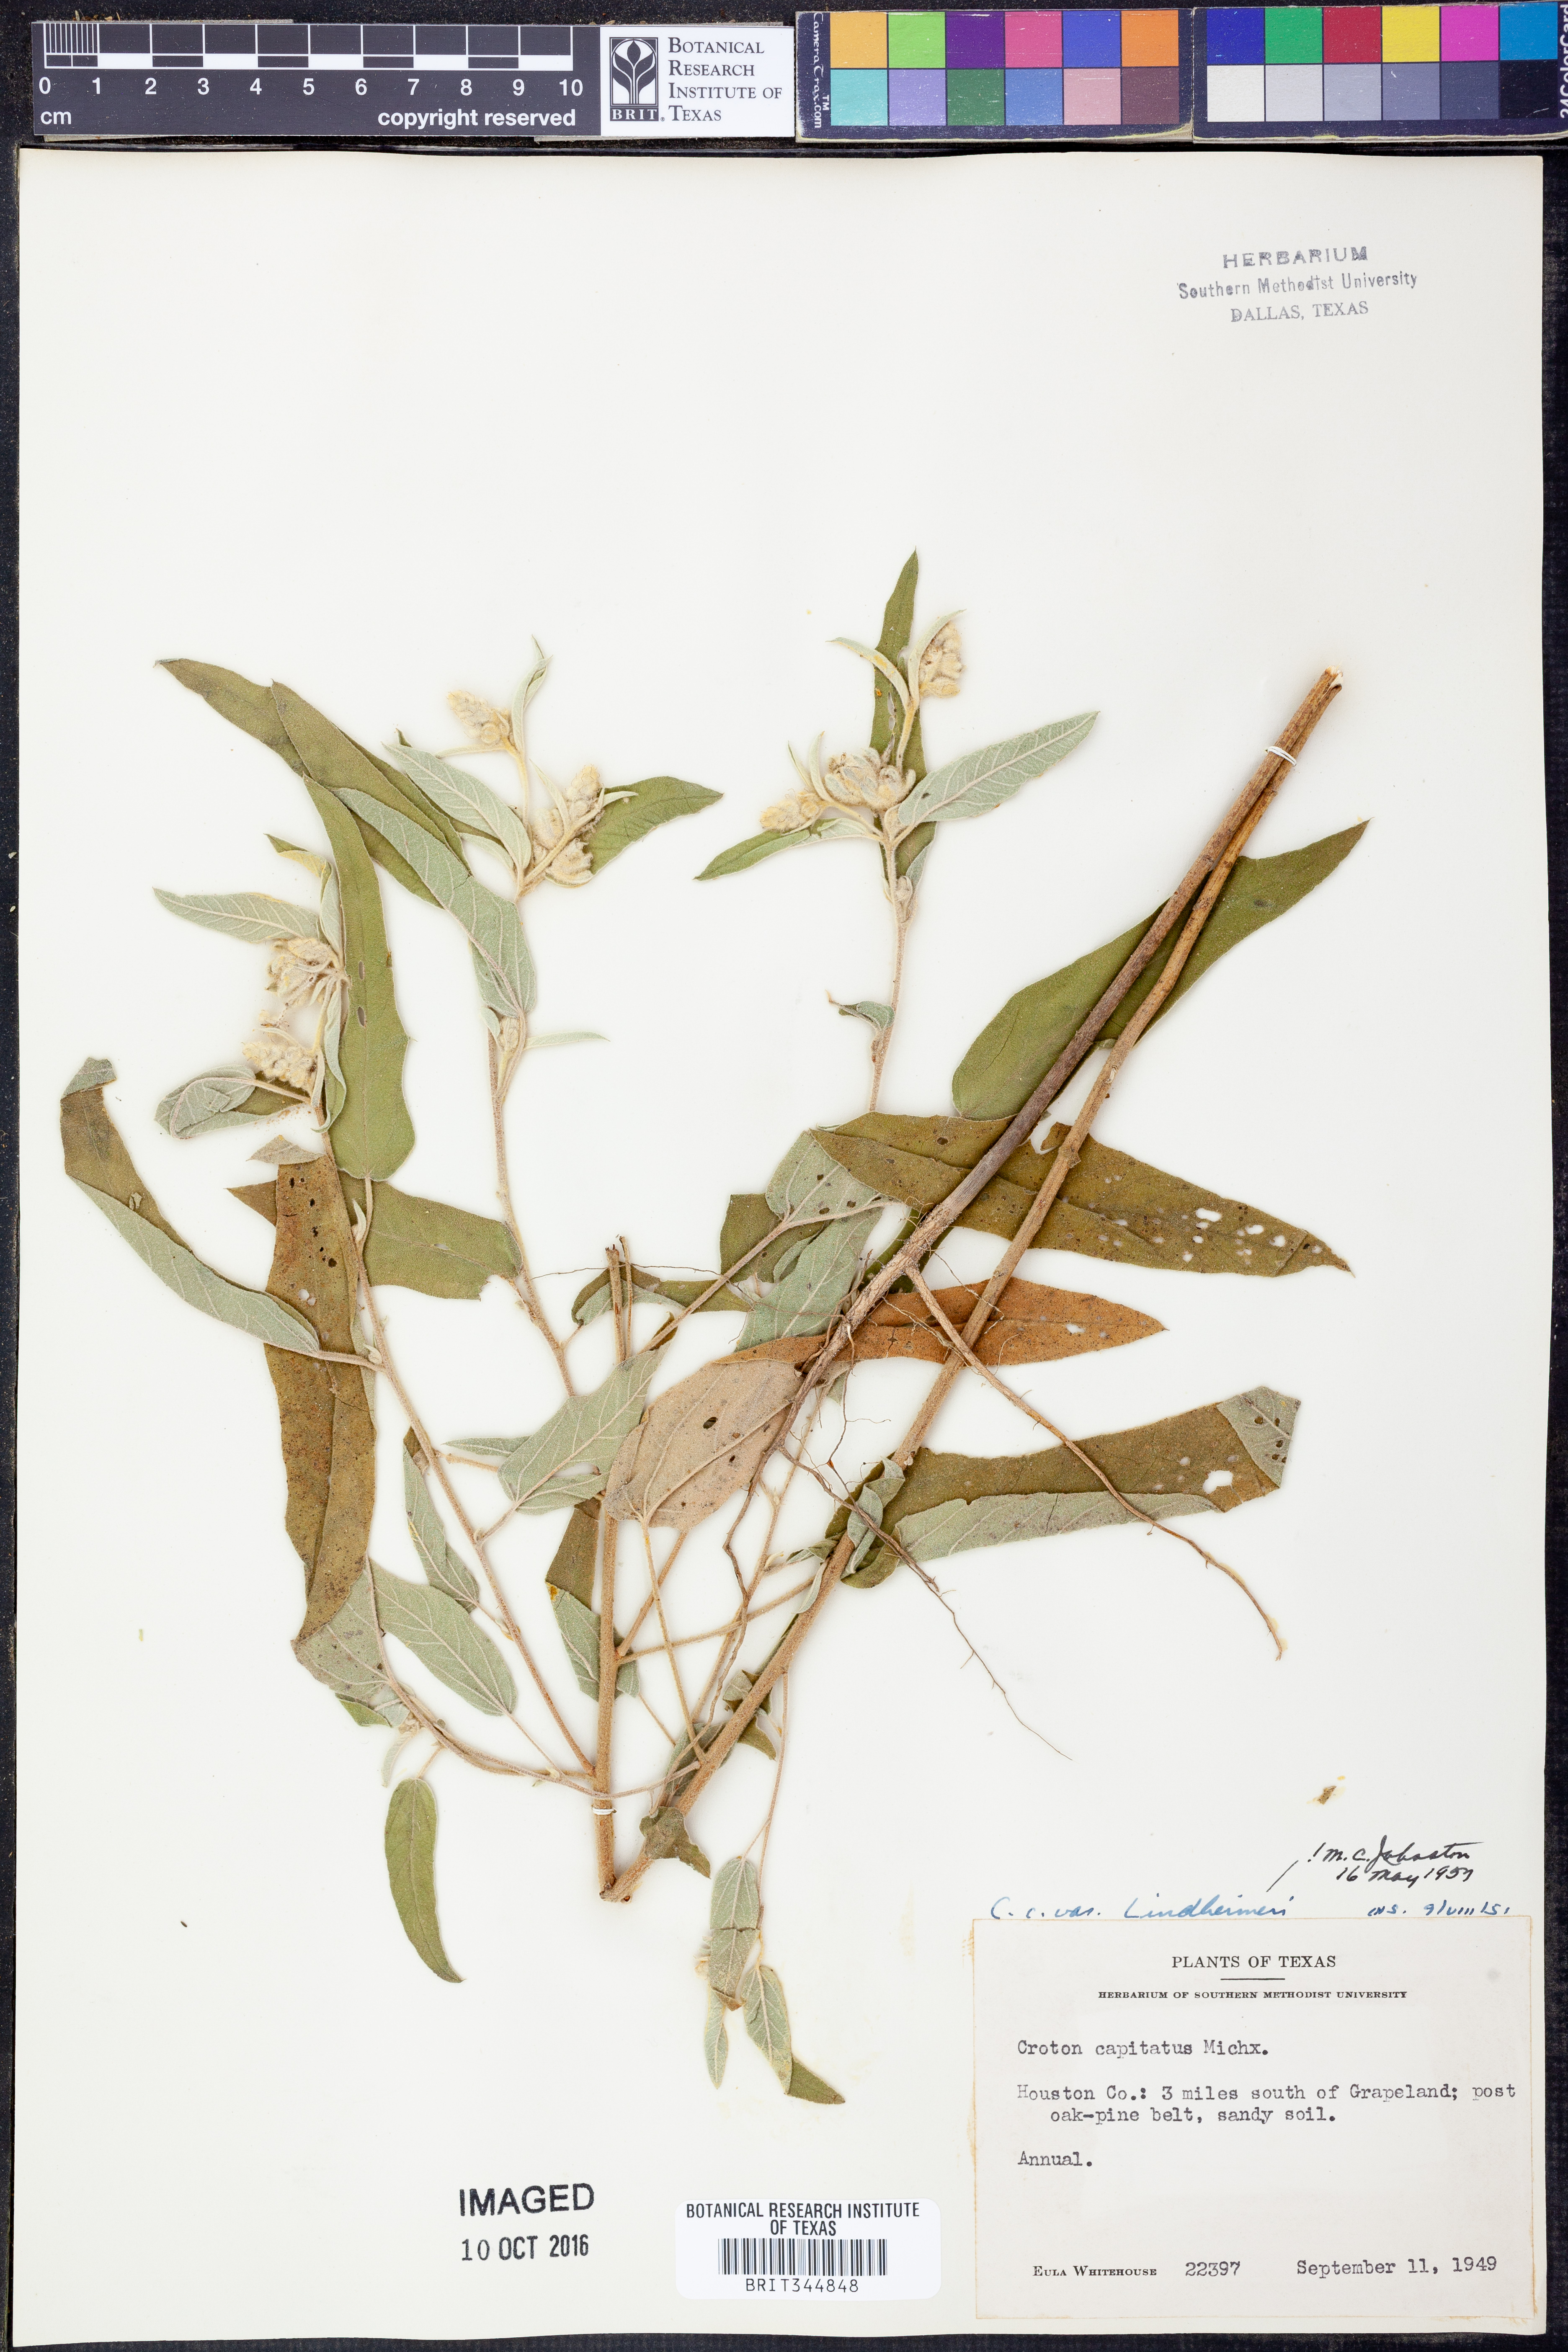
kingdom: Plantae
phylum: Tracheophyta
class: Magnoliopsida
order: Malpighiales
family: Euphorbiaceae
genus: Croton
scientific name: Croton lindheimeri
